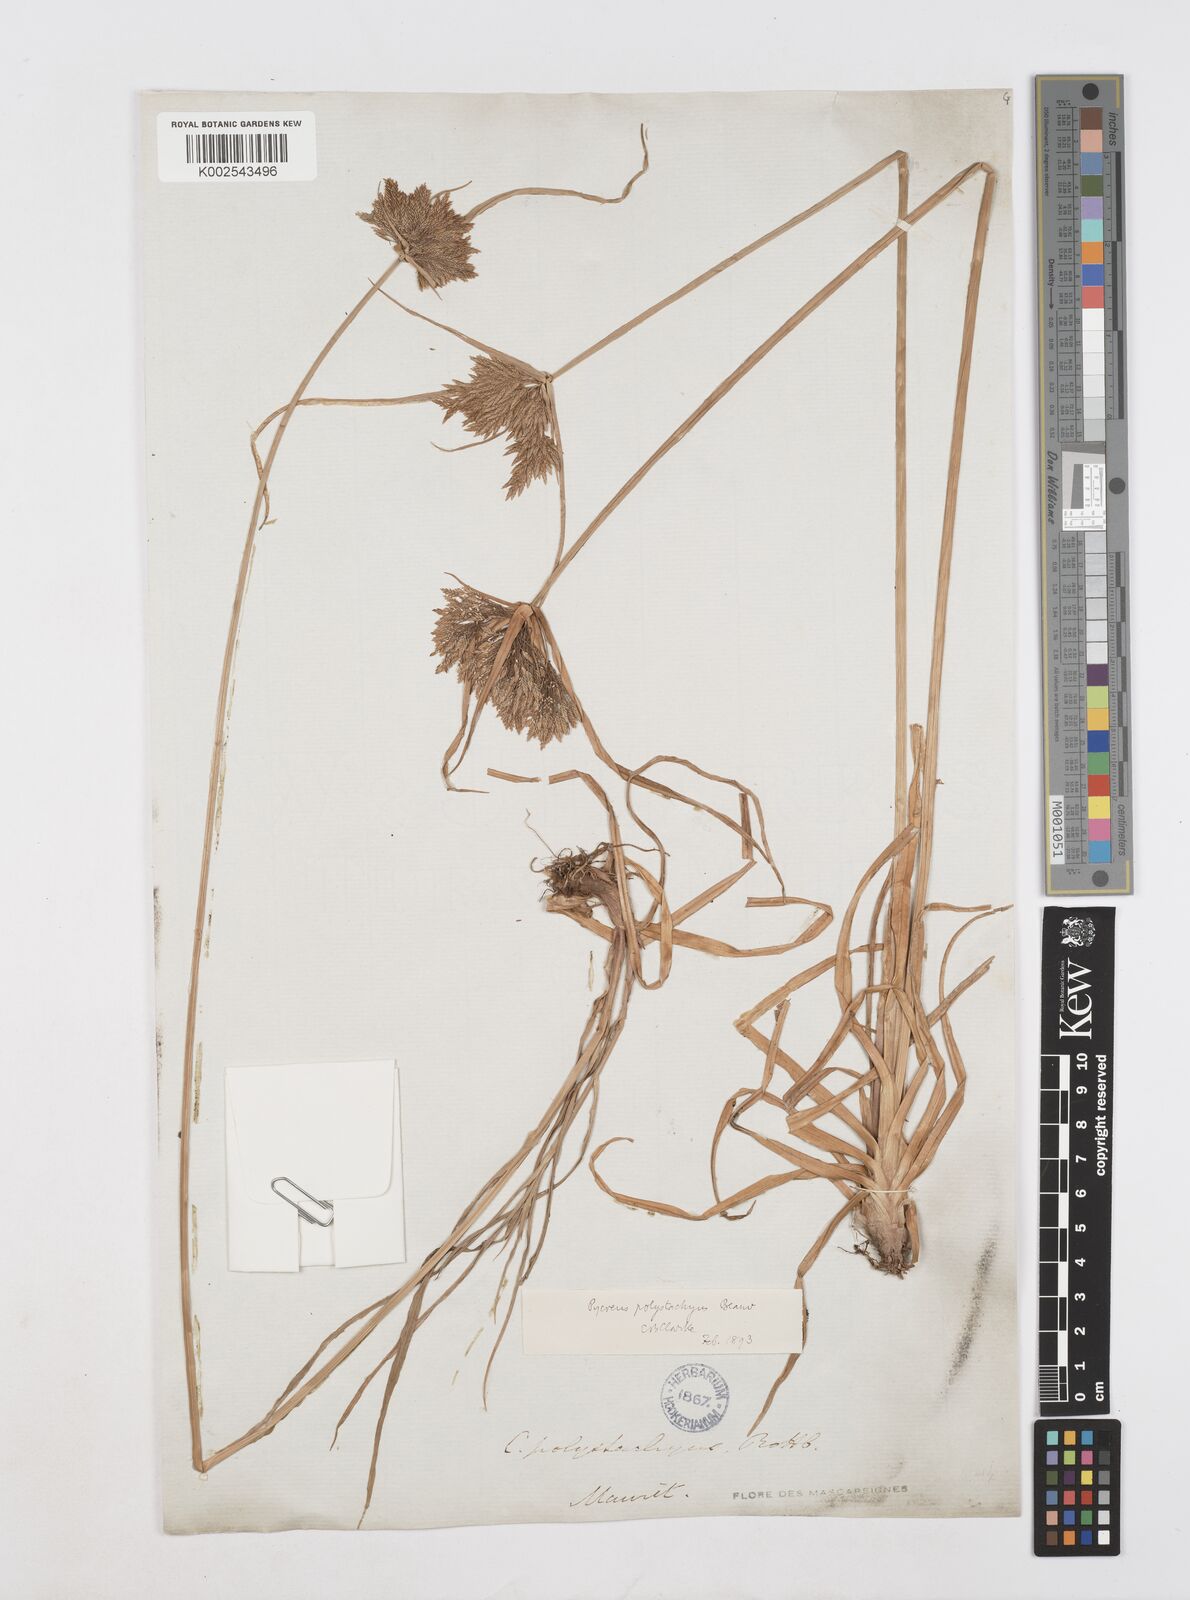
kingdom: Plantae
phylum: Tracheophyta
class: Liliopsida
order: Poales
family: Cyperaceae
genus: Cyperus
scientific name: Cyperus polystachyos
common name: Bunchy flat sedge
